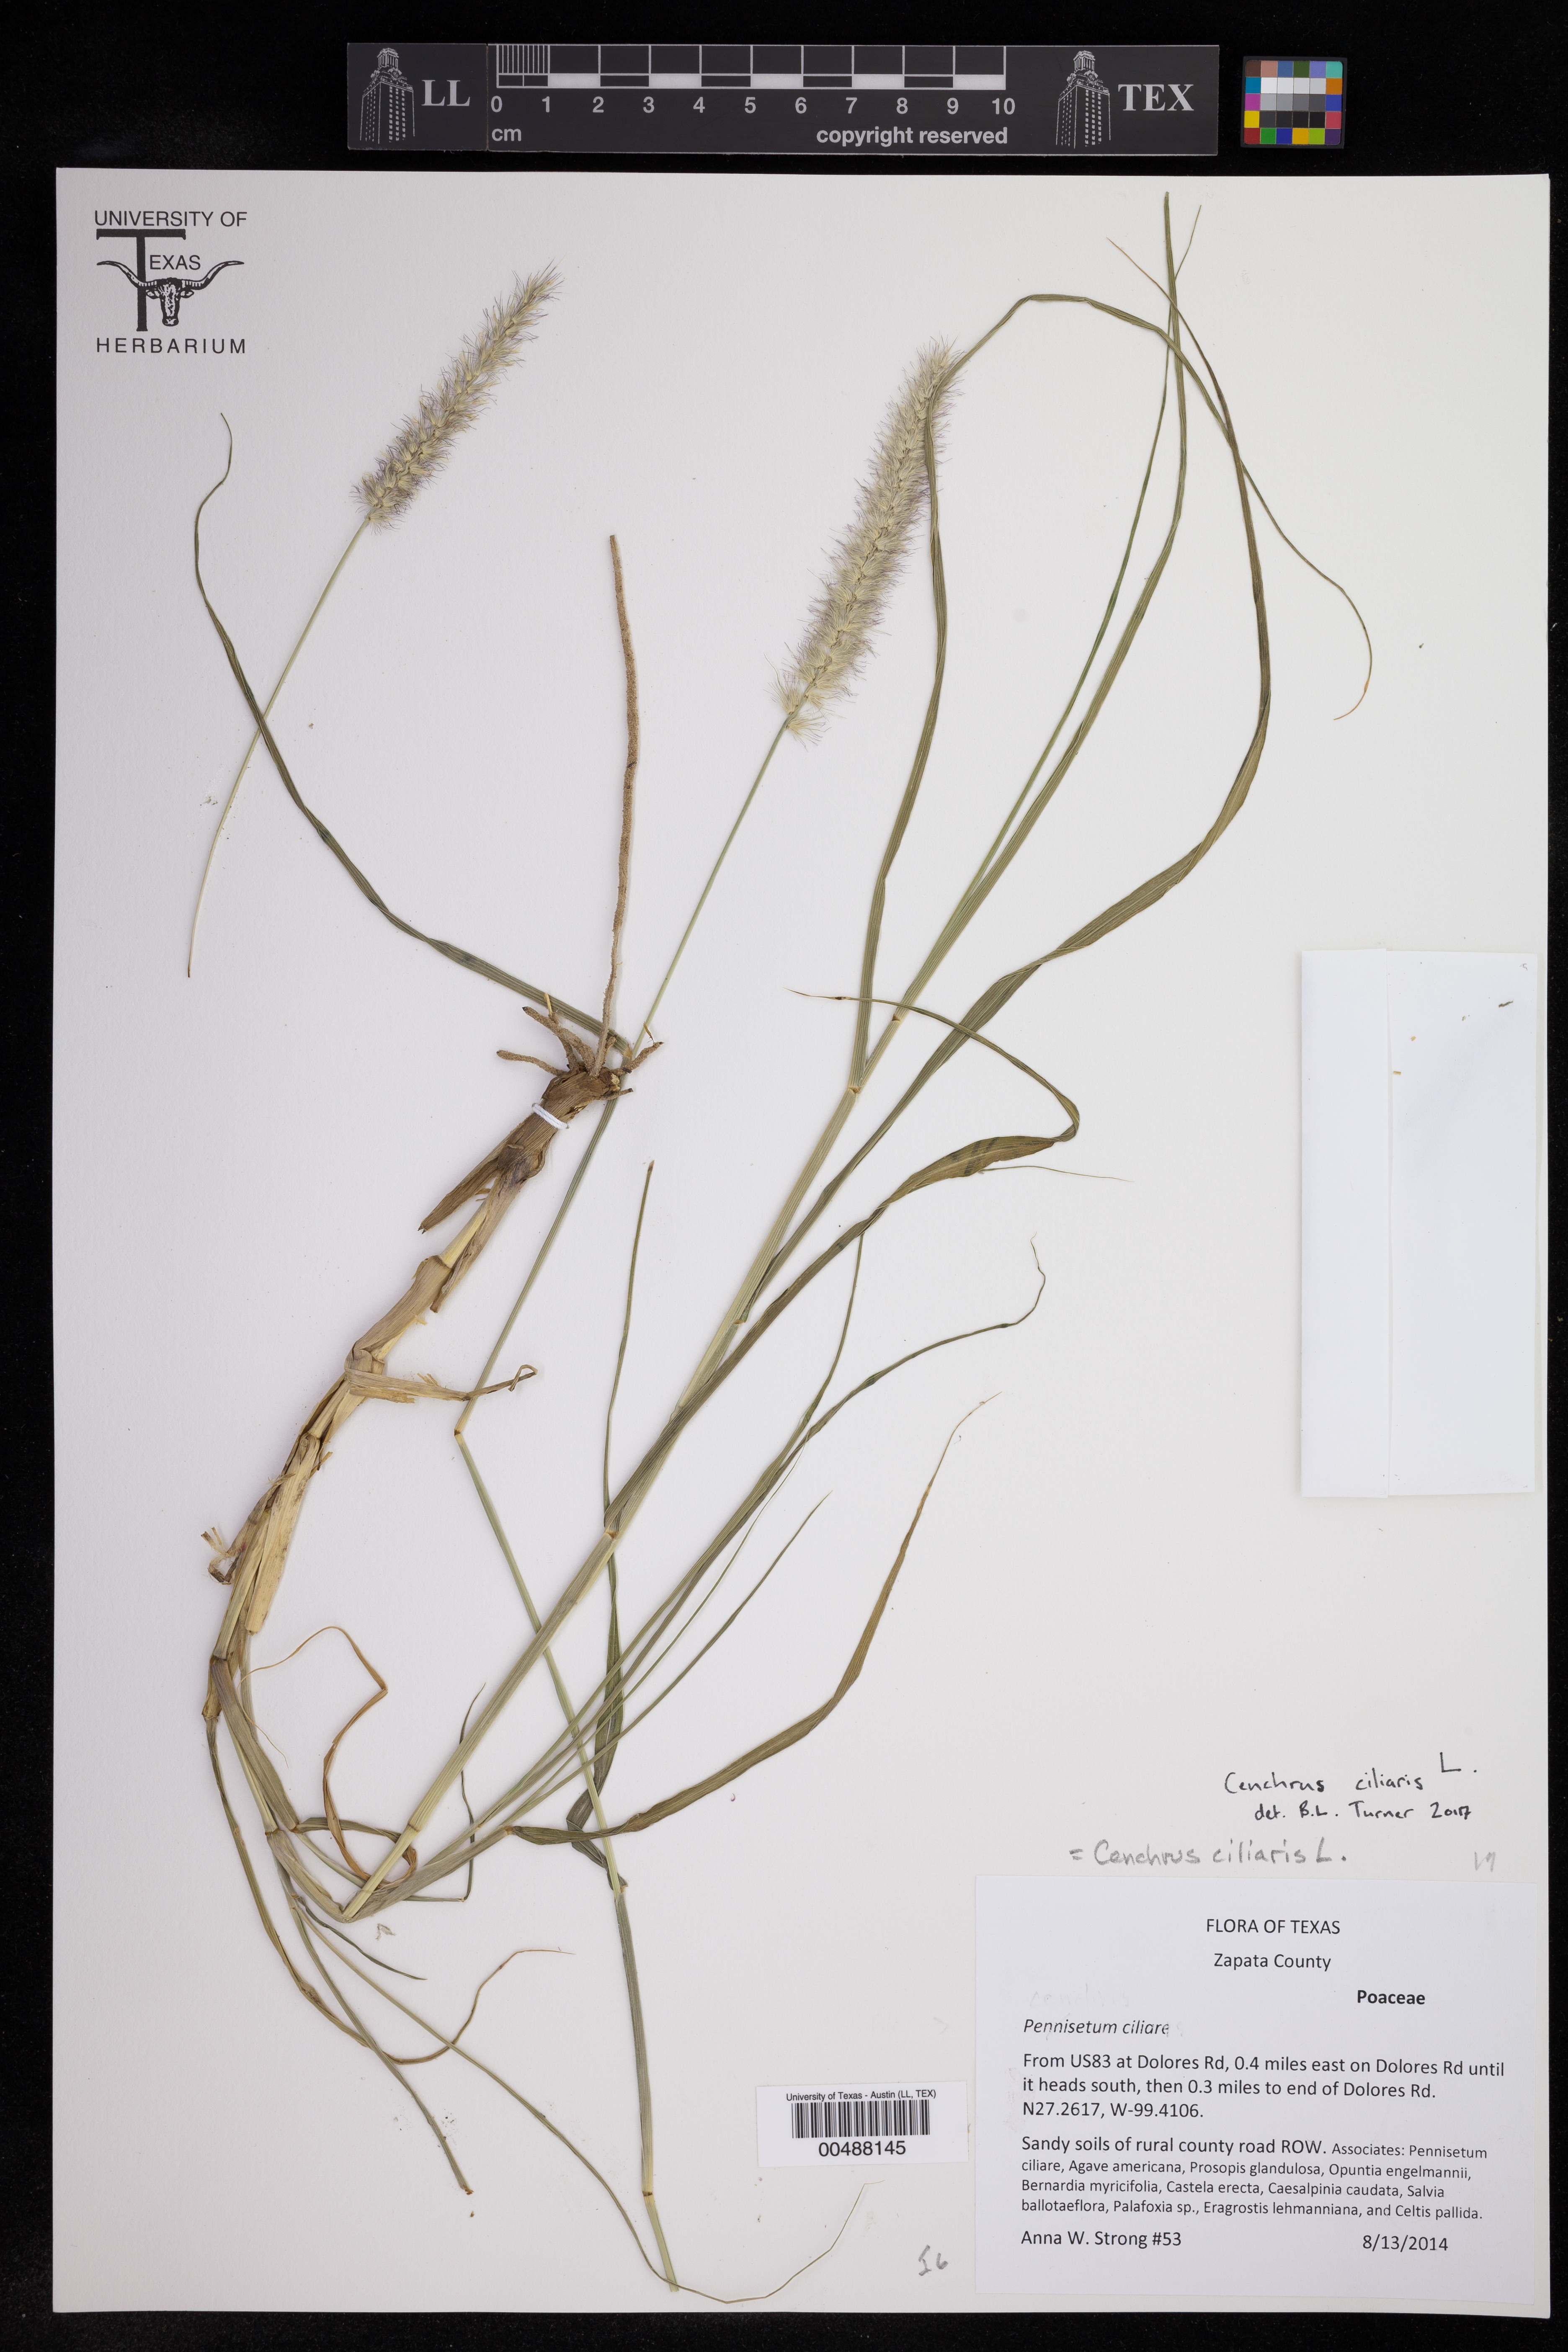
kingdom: Plantae
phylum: Tracheophyta
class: Liliopsida
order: Poales
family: Poaceae
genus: Cenchrus
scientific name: Cenchrus ciliaris
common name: Buffelgrass
